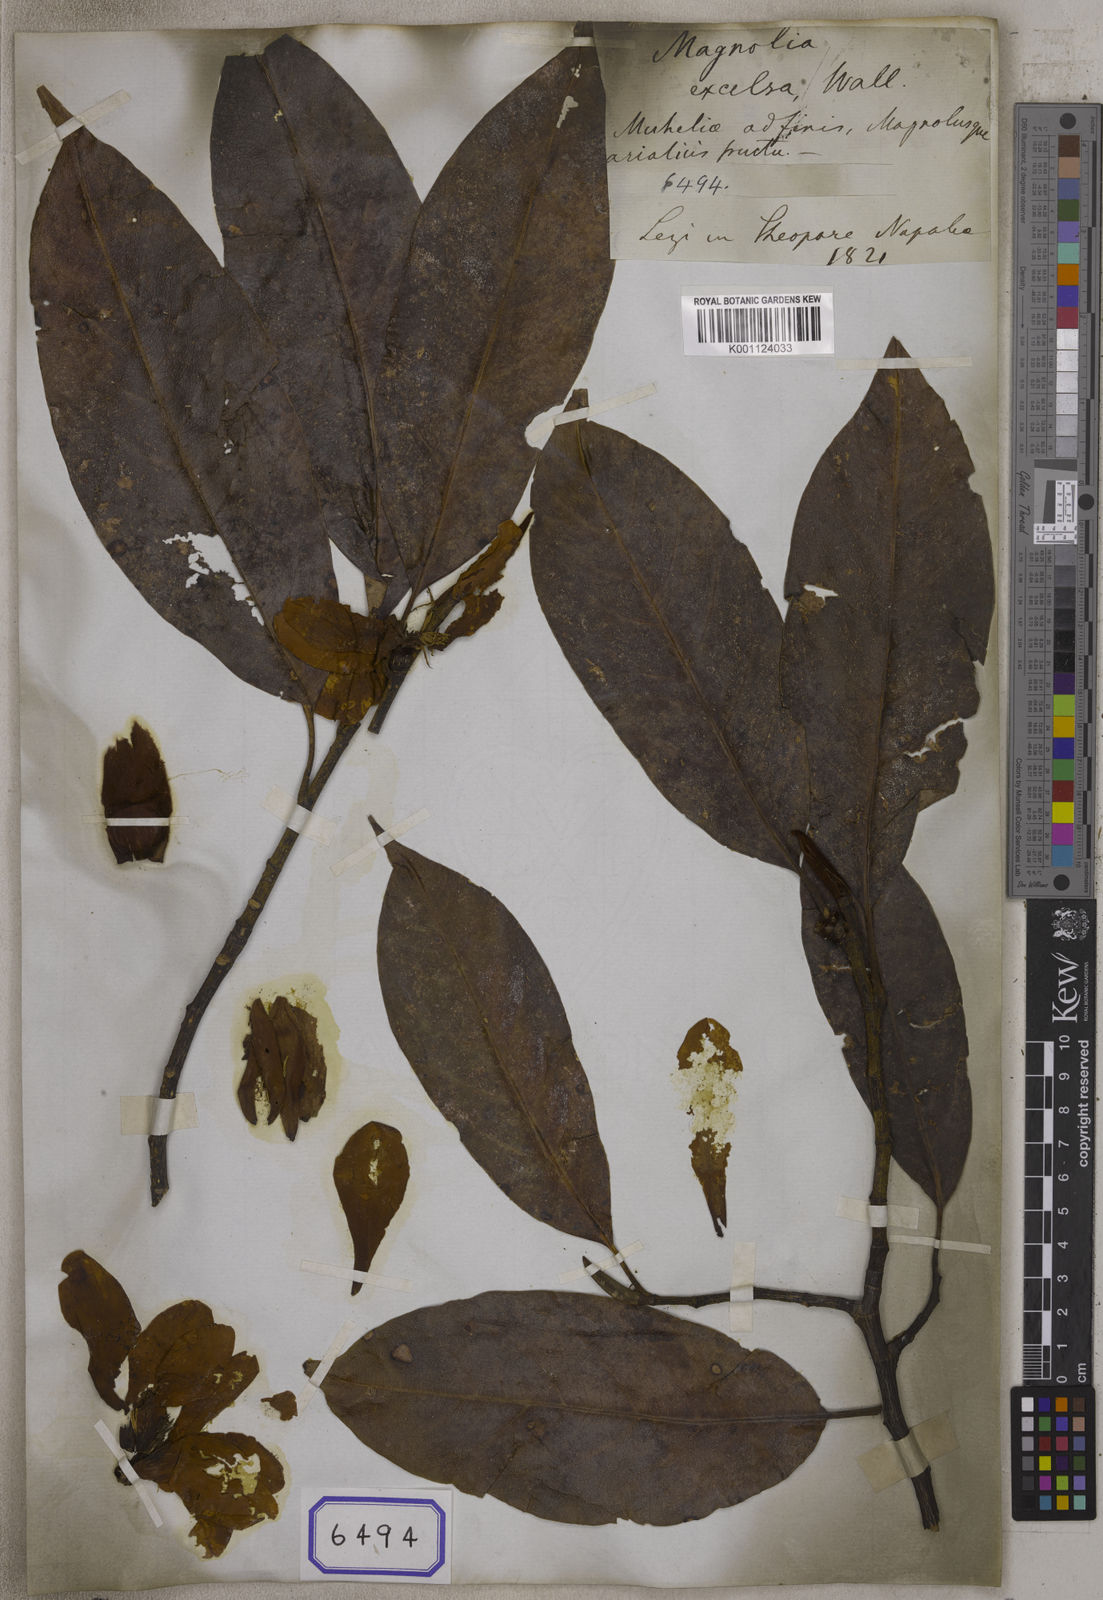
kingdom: Plantae
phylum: Tracheophyta
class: Magnoliopsida
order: Magnoliales
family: Magnoliaceae
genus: Michelia
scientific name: Michelia
